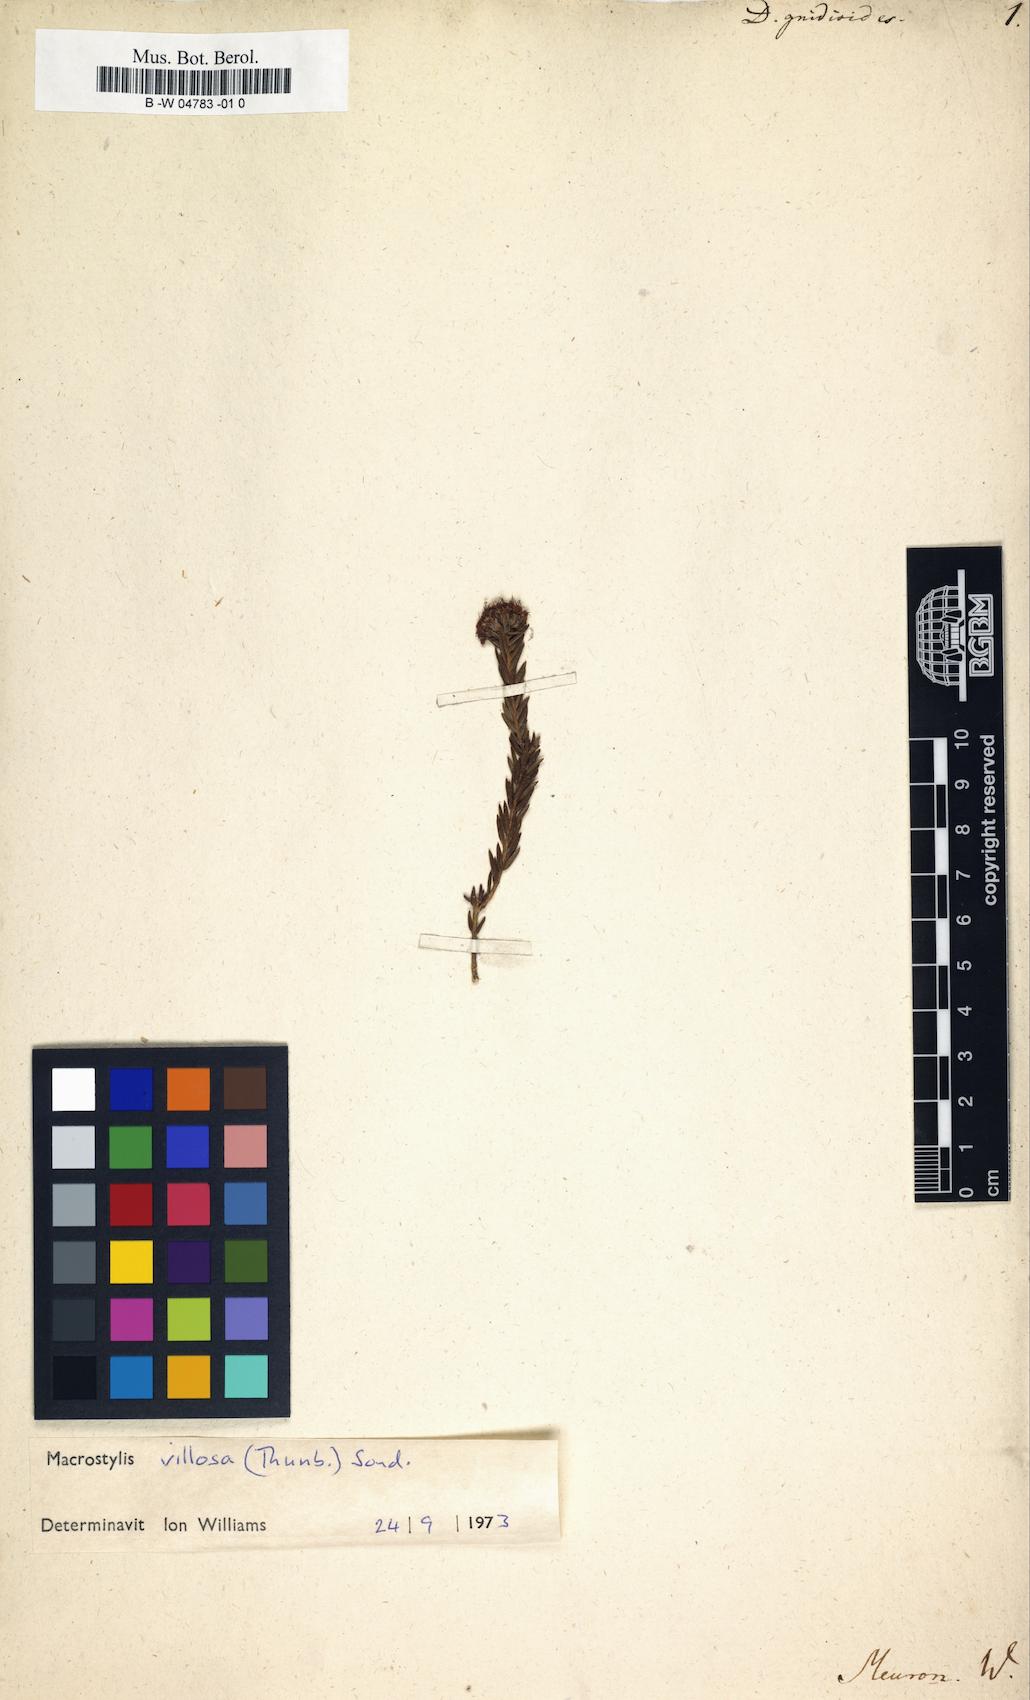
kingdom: Plantae
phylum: Tracheophyta
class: Magnoliopsida
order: Sapindales
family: Rutaceae
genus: Agathosma
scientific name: Agathosma puberula
